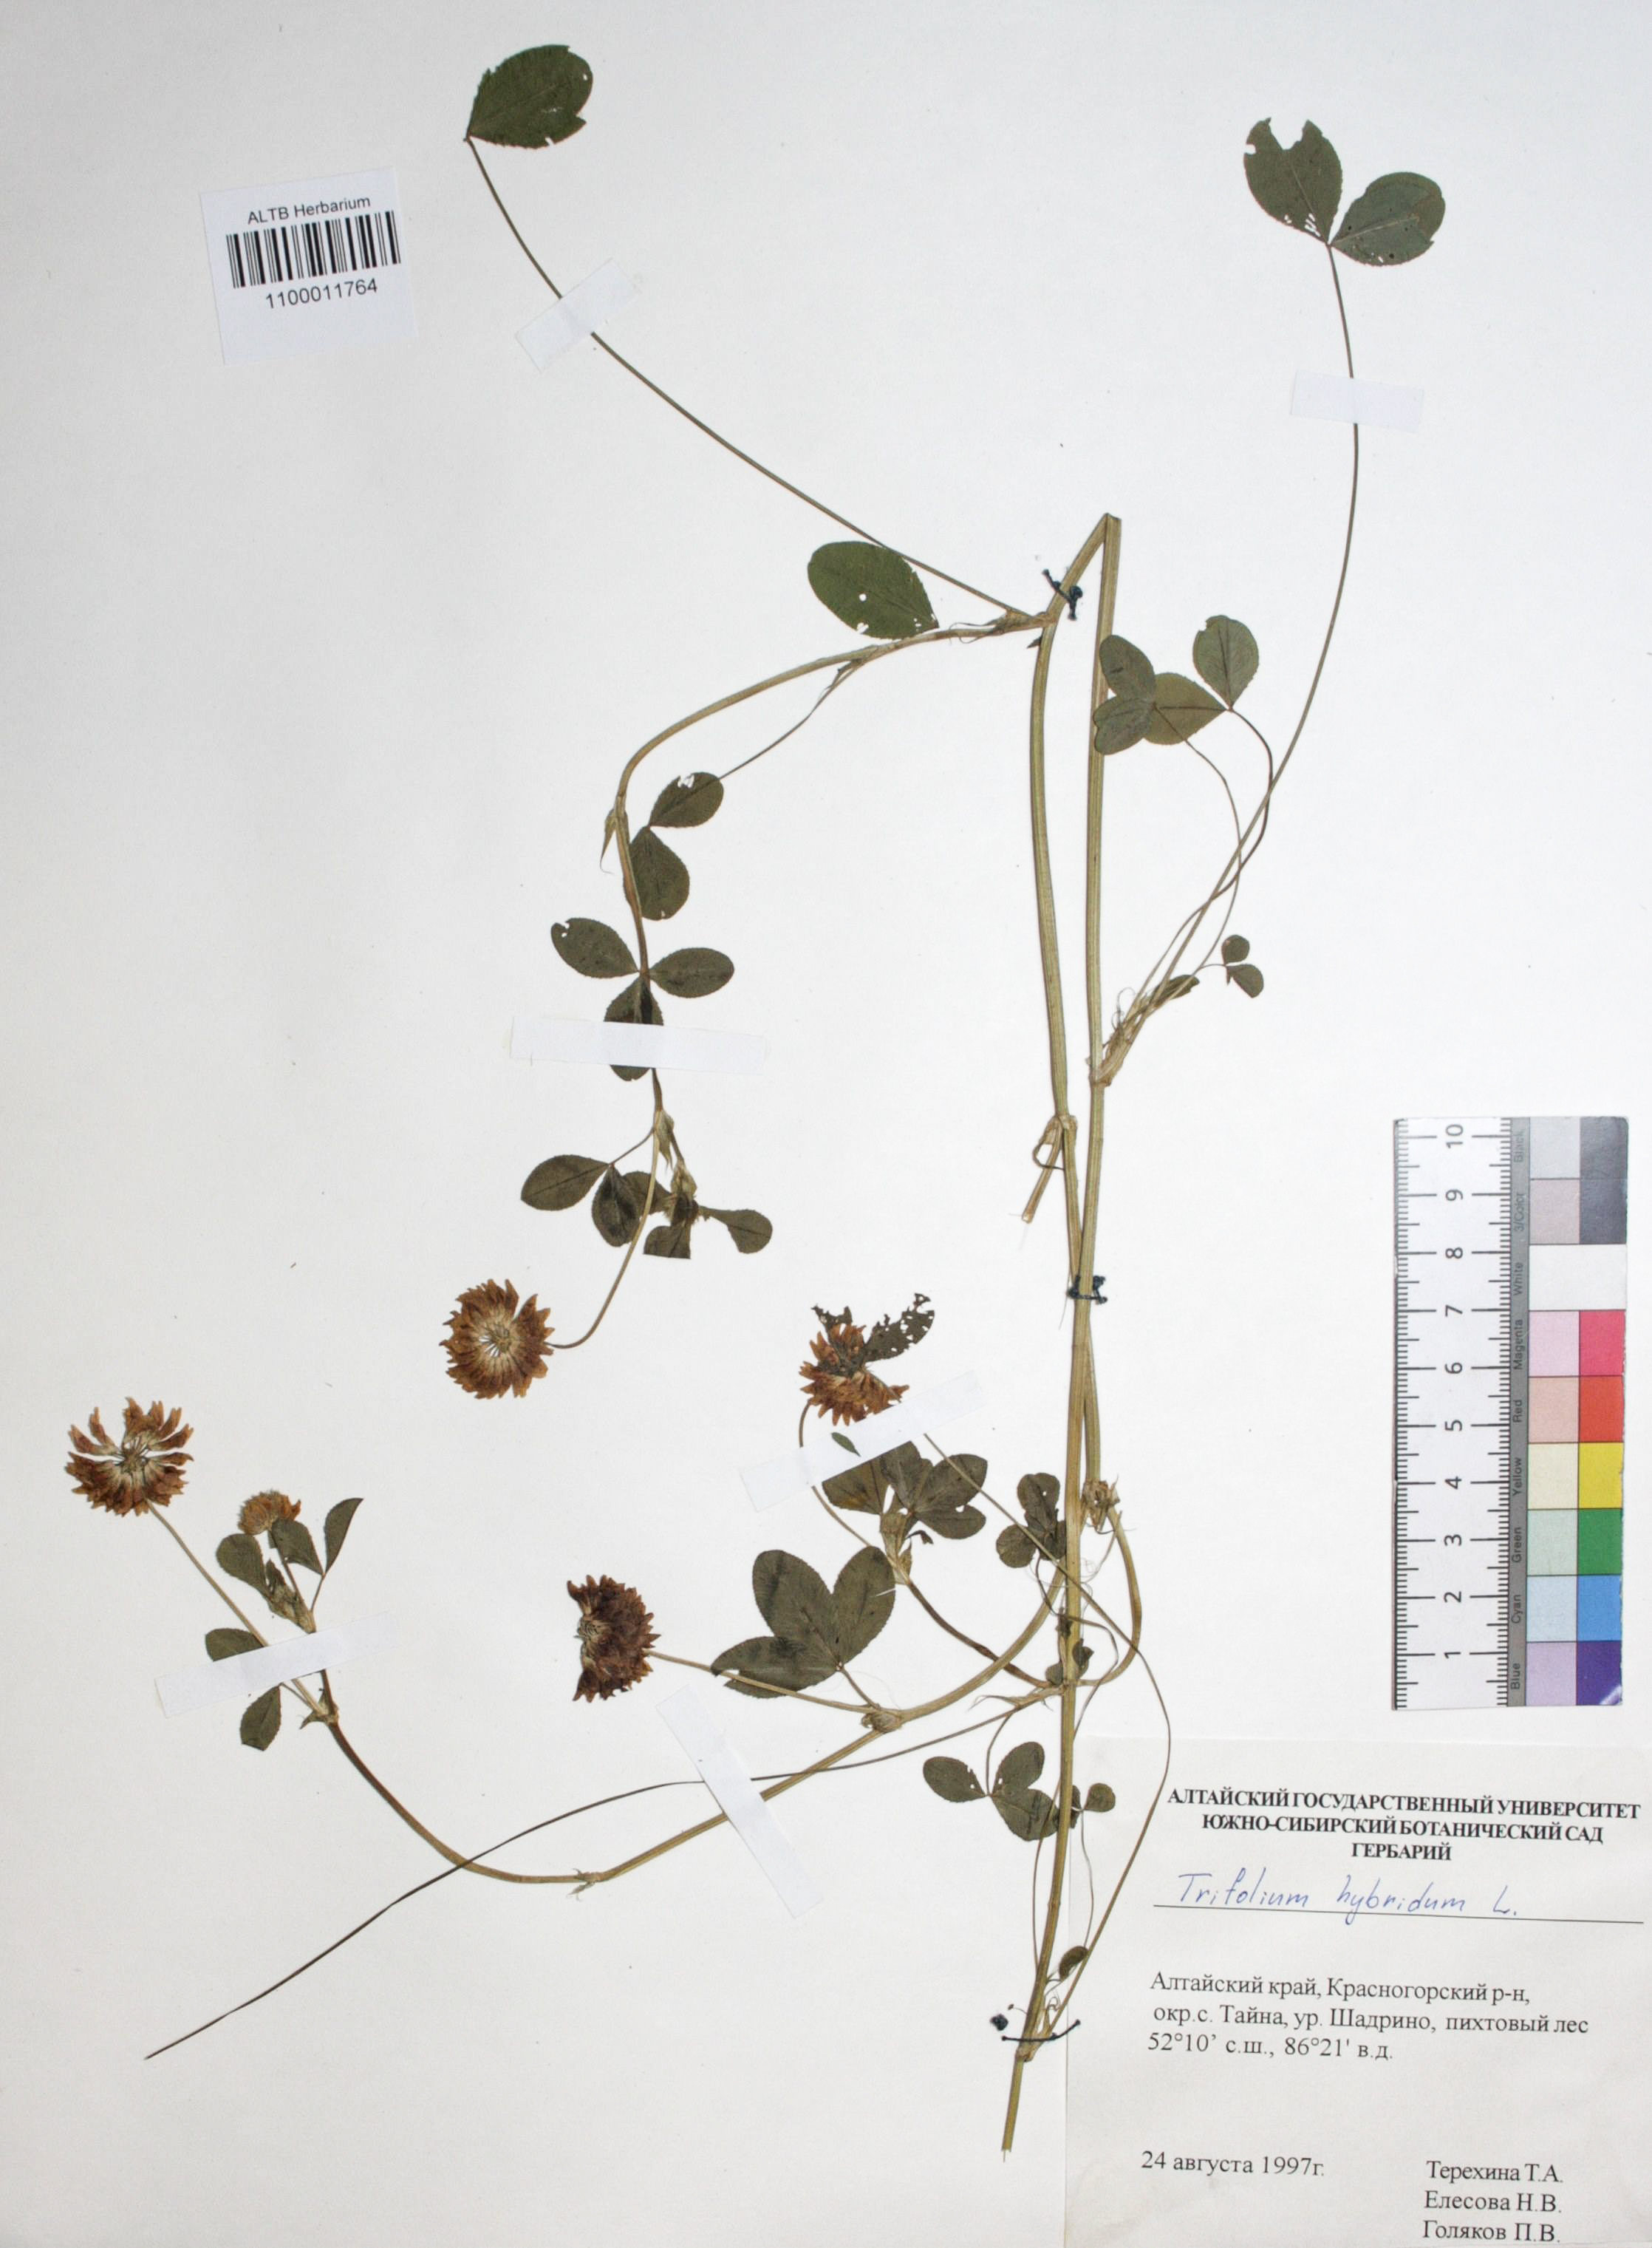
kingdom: Plantae
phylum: Tracheophyta
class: Magnoliopsida
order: Fabales
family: Fabaceae
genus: Trifolium
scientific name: Trifolium hybridum
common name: Alsike clover
